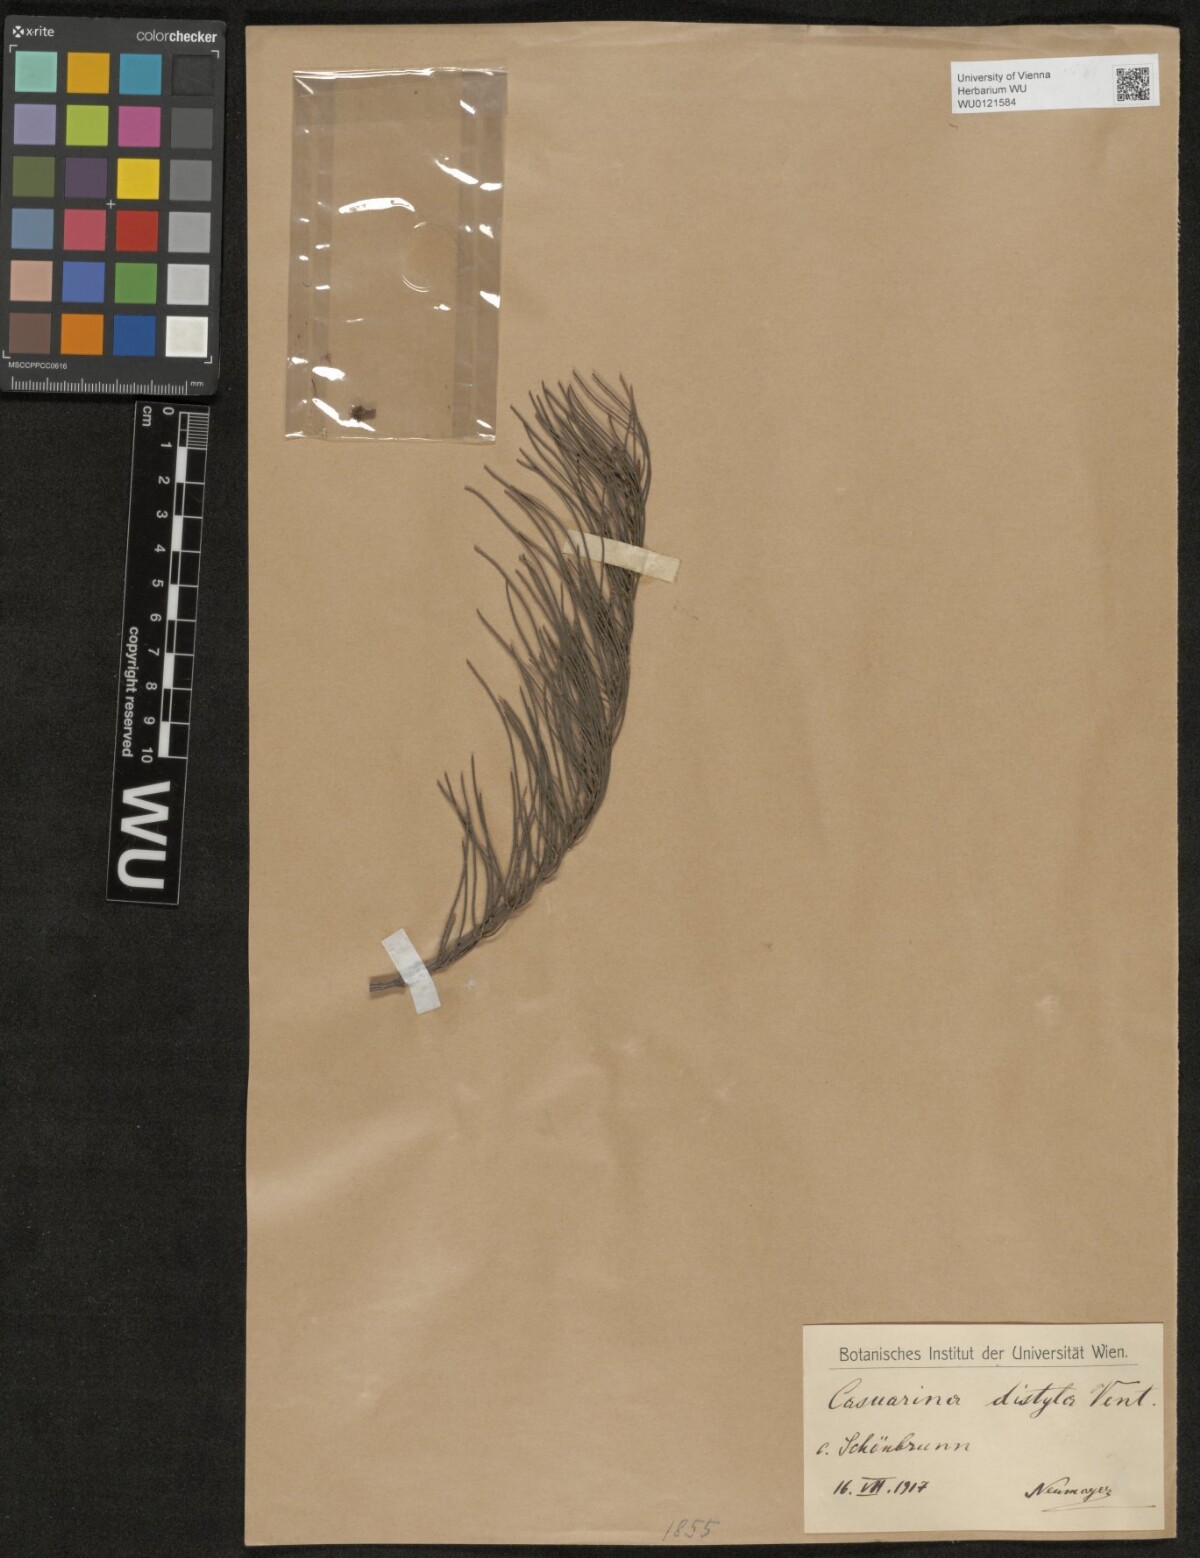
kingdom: Plantae
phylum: Tracheophyta
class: Magnoliopsida
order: Fagales
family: Casuarinaceae
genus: Allocasuarina
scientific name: Allocasuarina distyla
